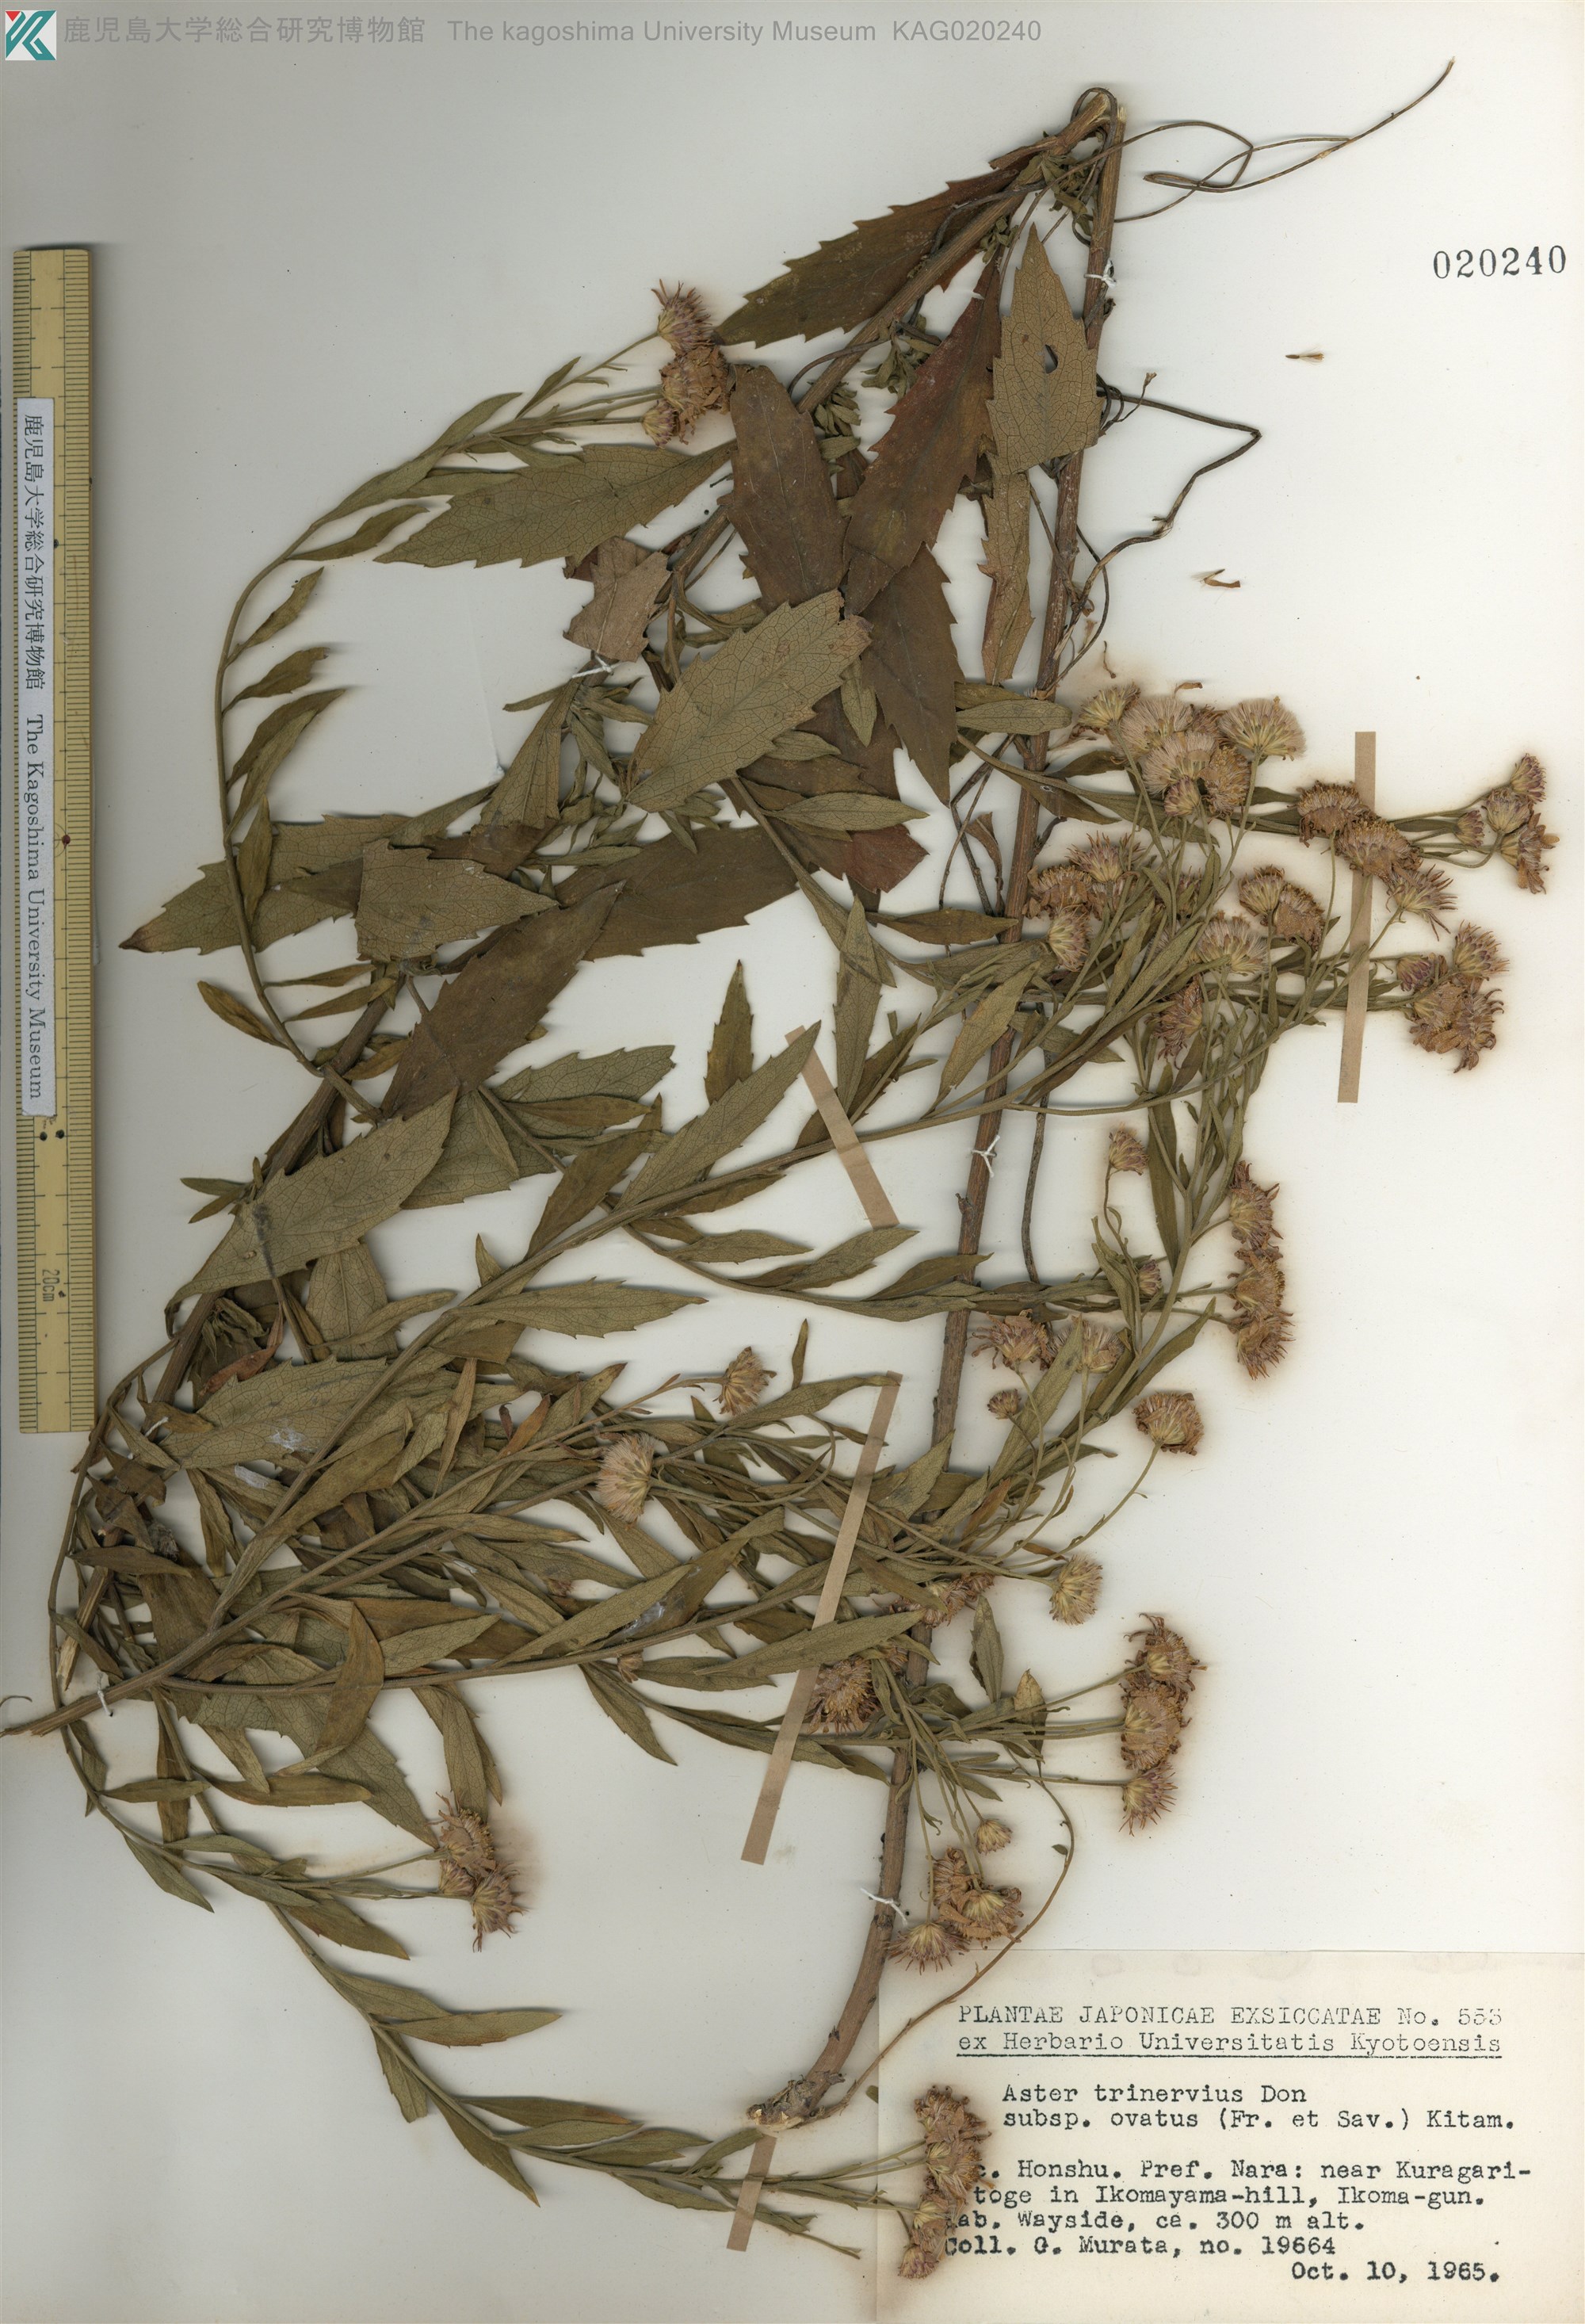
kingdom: Plantae
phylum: Tracheophyta
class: Magnoliopsida
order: Asterales
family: Asteraceae
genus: Aster
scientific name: Aster microcephalus
